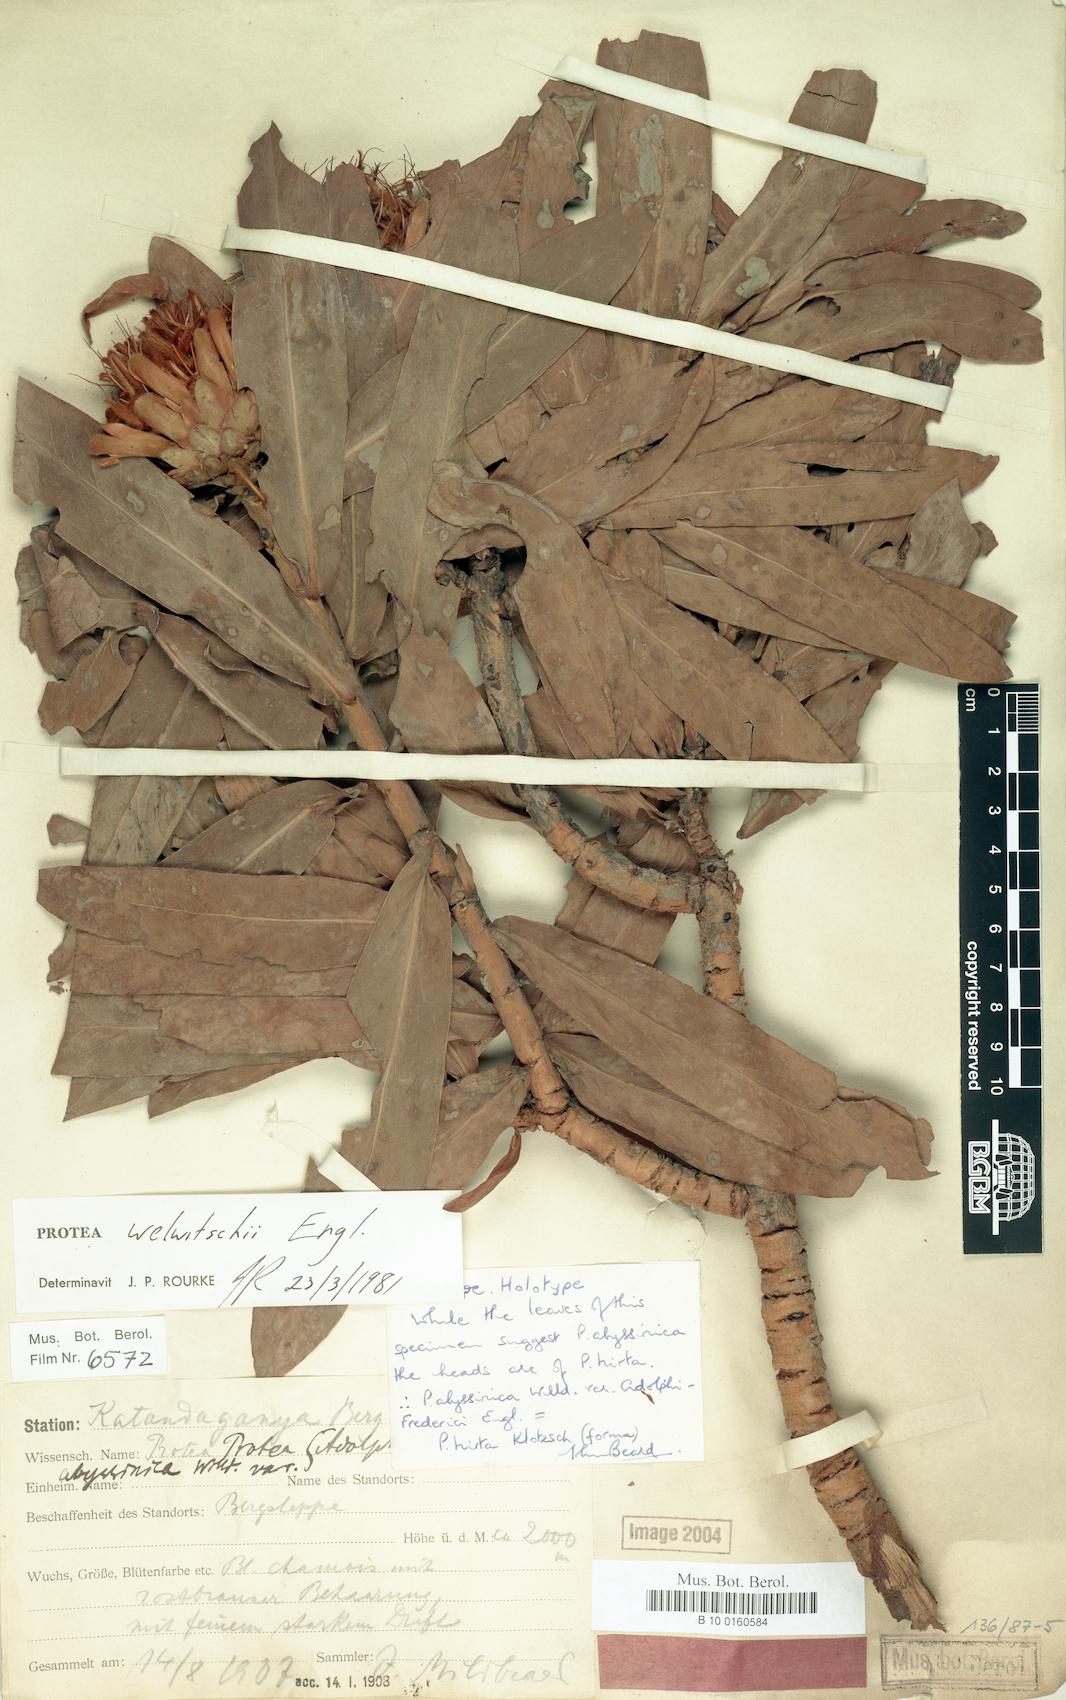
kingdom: Plantae
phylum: Tracheophyta
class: Magnoliopsida
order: Proteales
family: Proteaceae
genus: Protea
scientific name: Protea welwitschii
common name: Cluster-head protea
